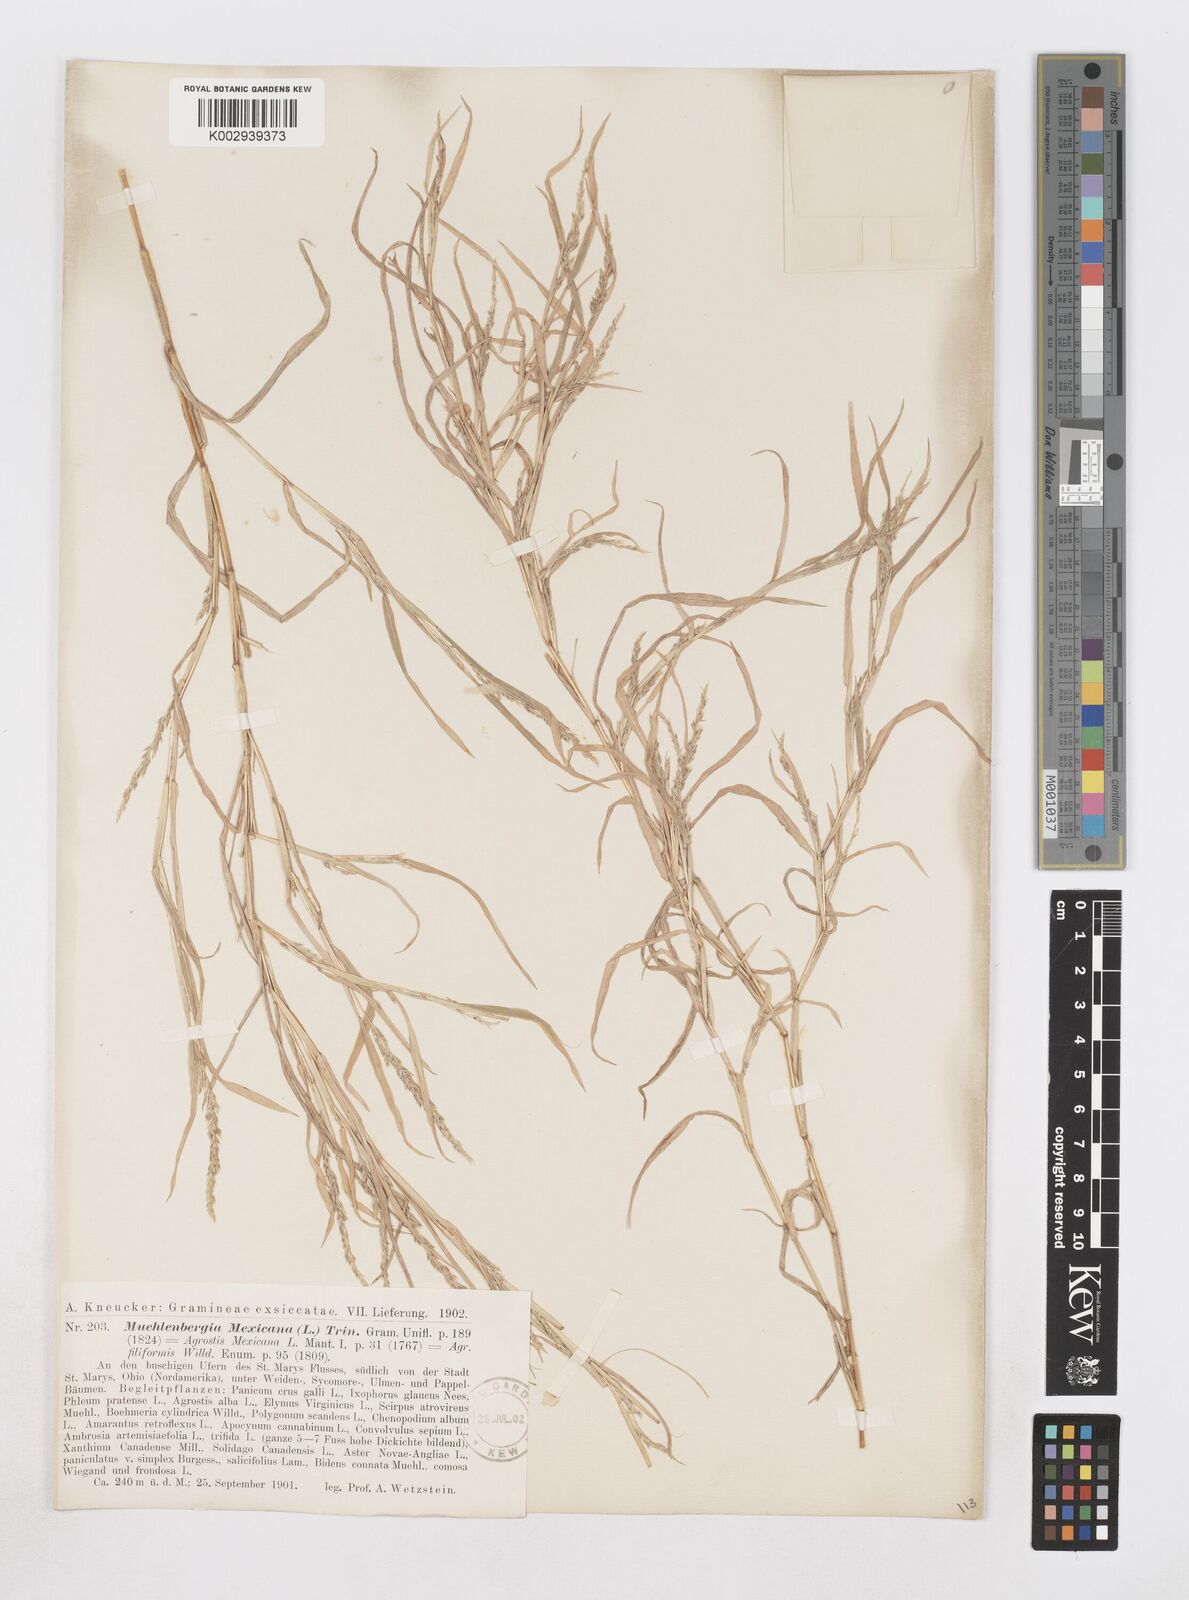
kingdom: Plantae
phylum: Tracheophyta
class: Liliopsida
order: Poales
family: Poaceae
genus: Muhlenbergia
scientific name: Muhlenbergia mexicana
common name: Mexican muhly
